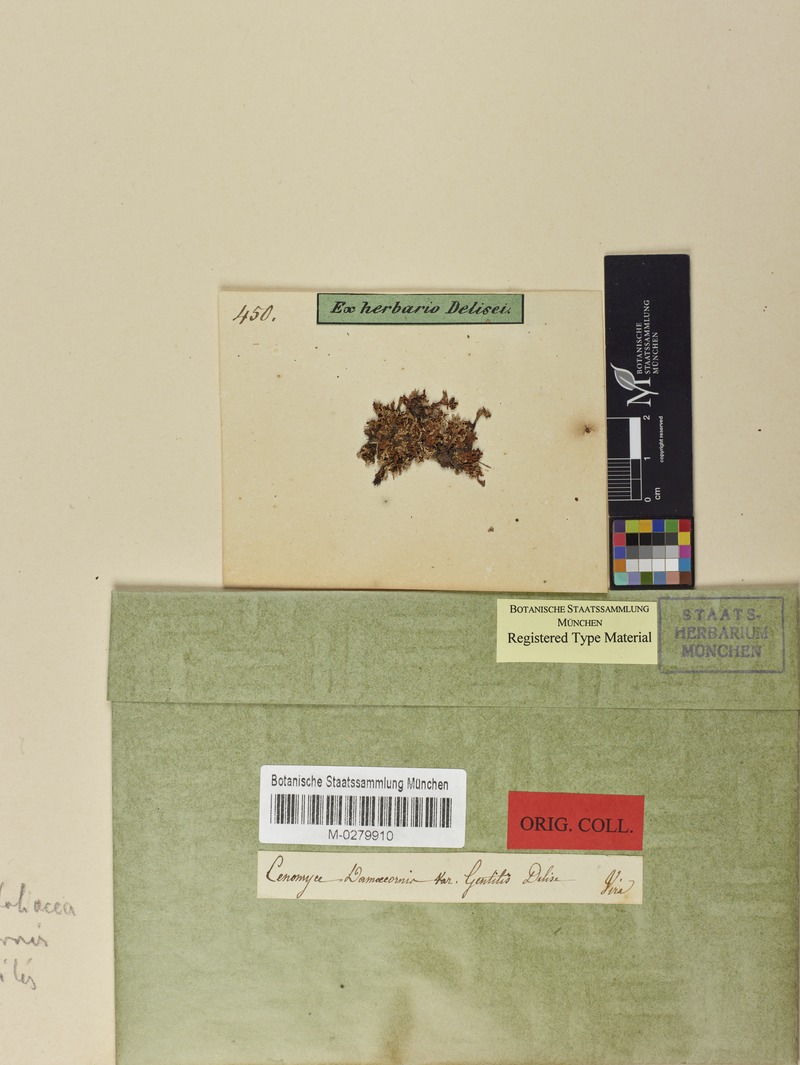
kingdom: Fungi
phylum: Ascomycota
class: Lecanoromycetes
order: Lecanorales
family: Cladoniaceae
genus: Cladonia
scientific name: Cladonia foliacea
